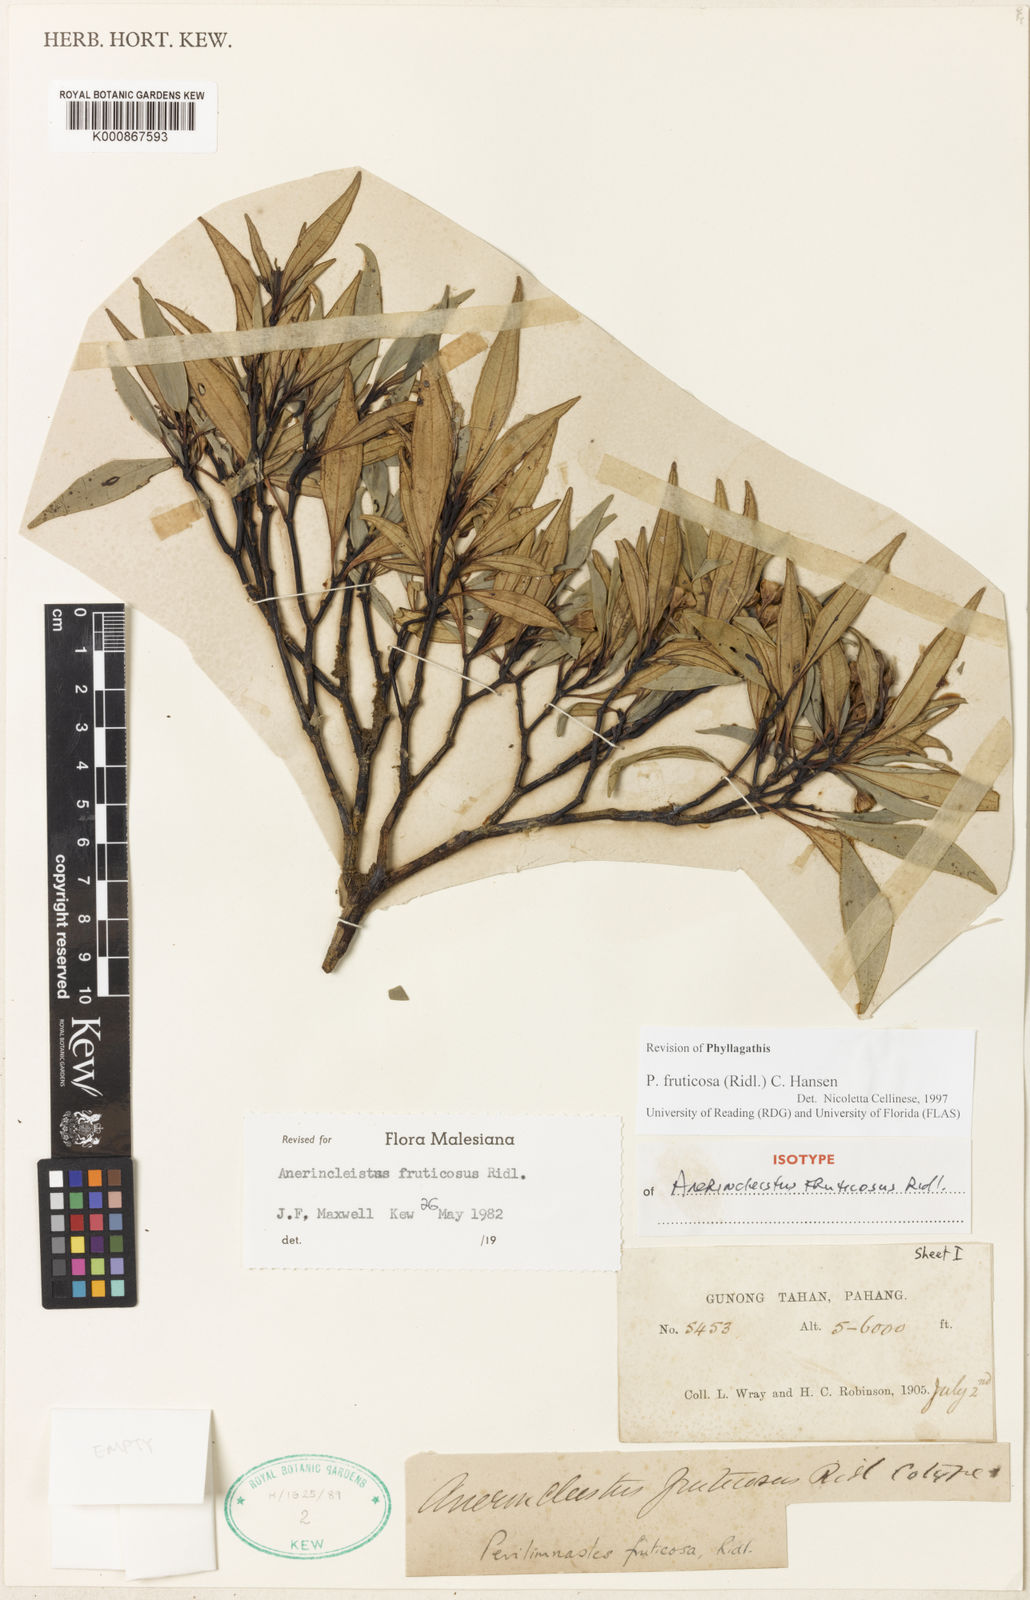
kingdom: Plantae
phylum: Tracheophyta
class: Magnoliopsida
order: Myrtales
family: Melastomataceae
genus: Anerincleistus
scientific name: Anerincleistus fruticosus
